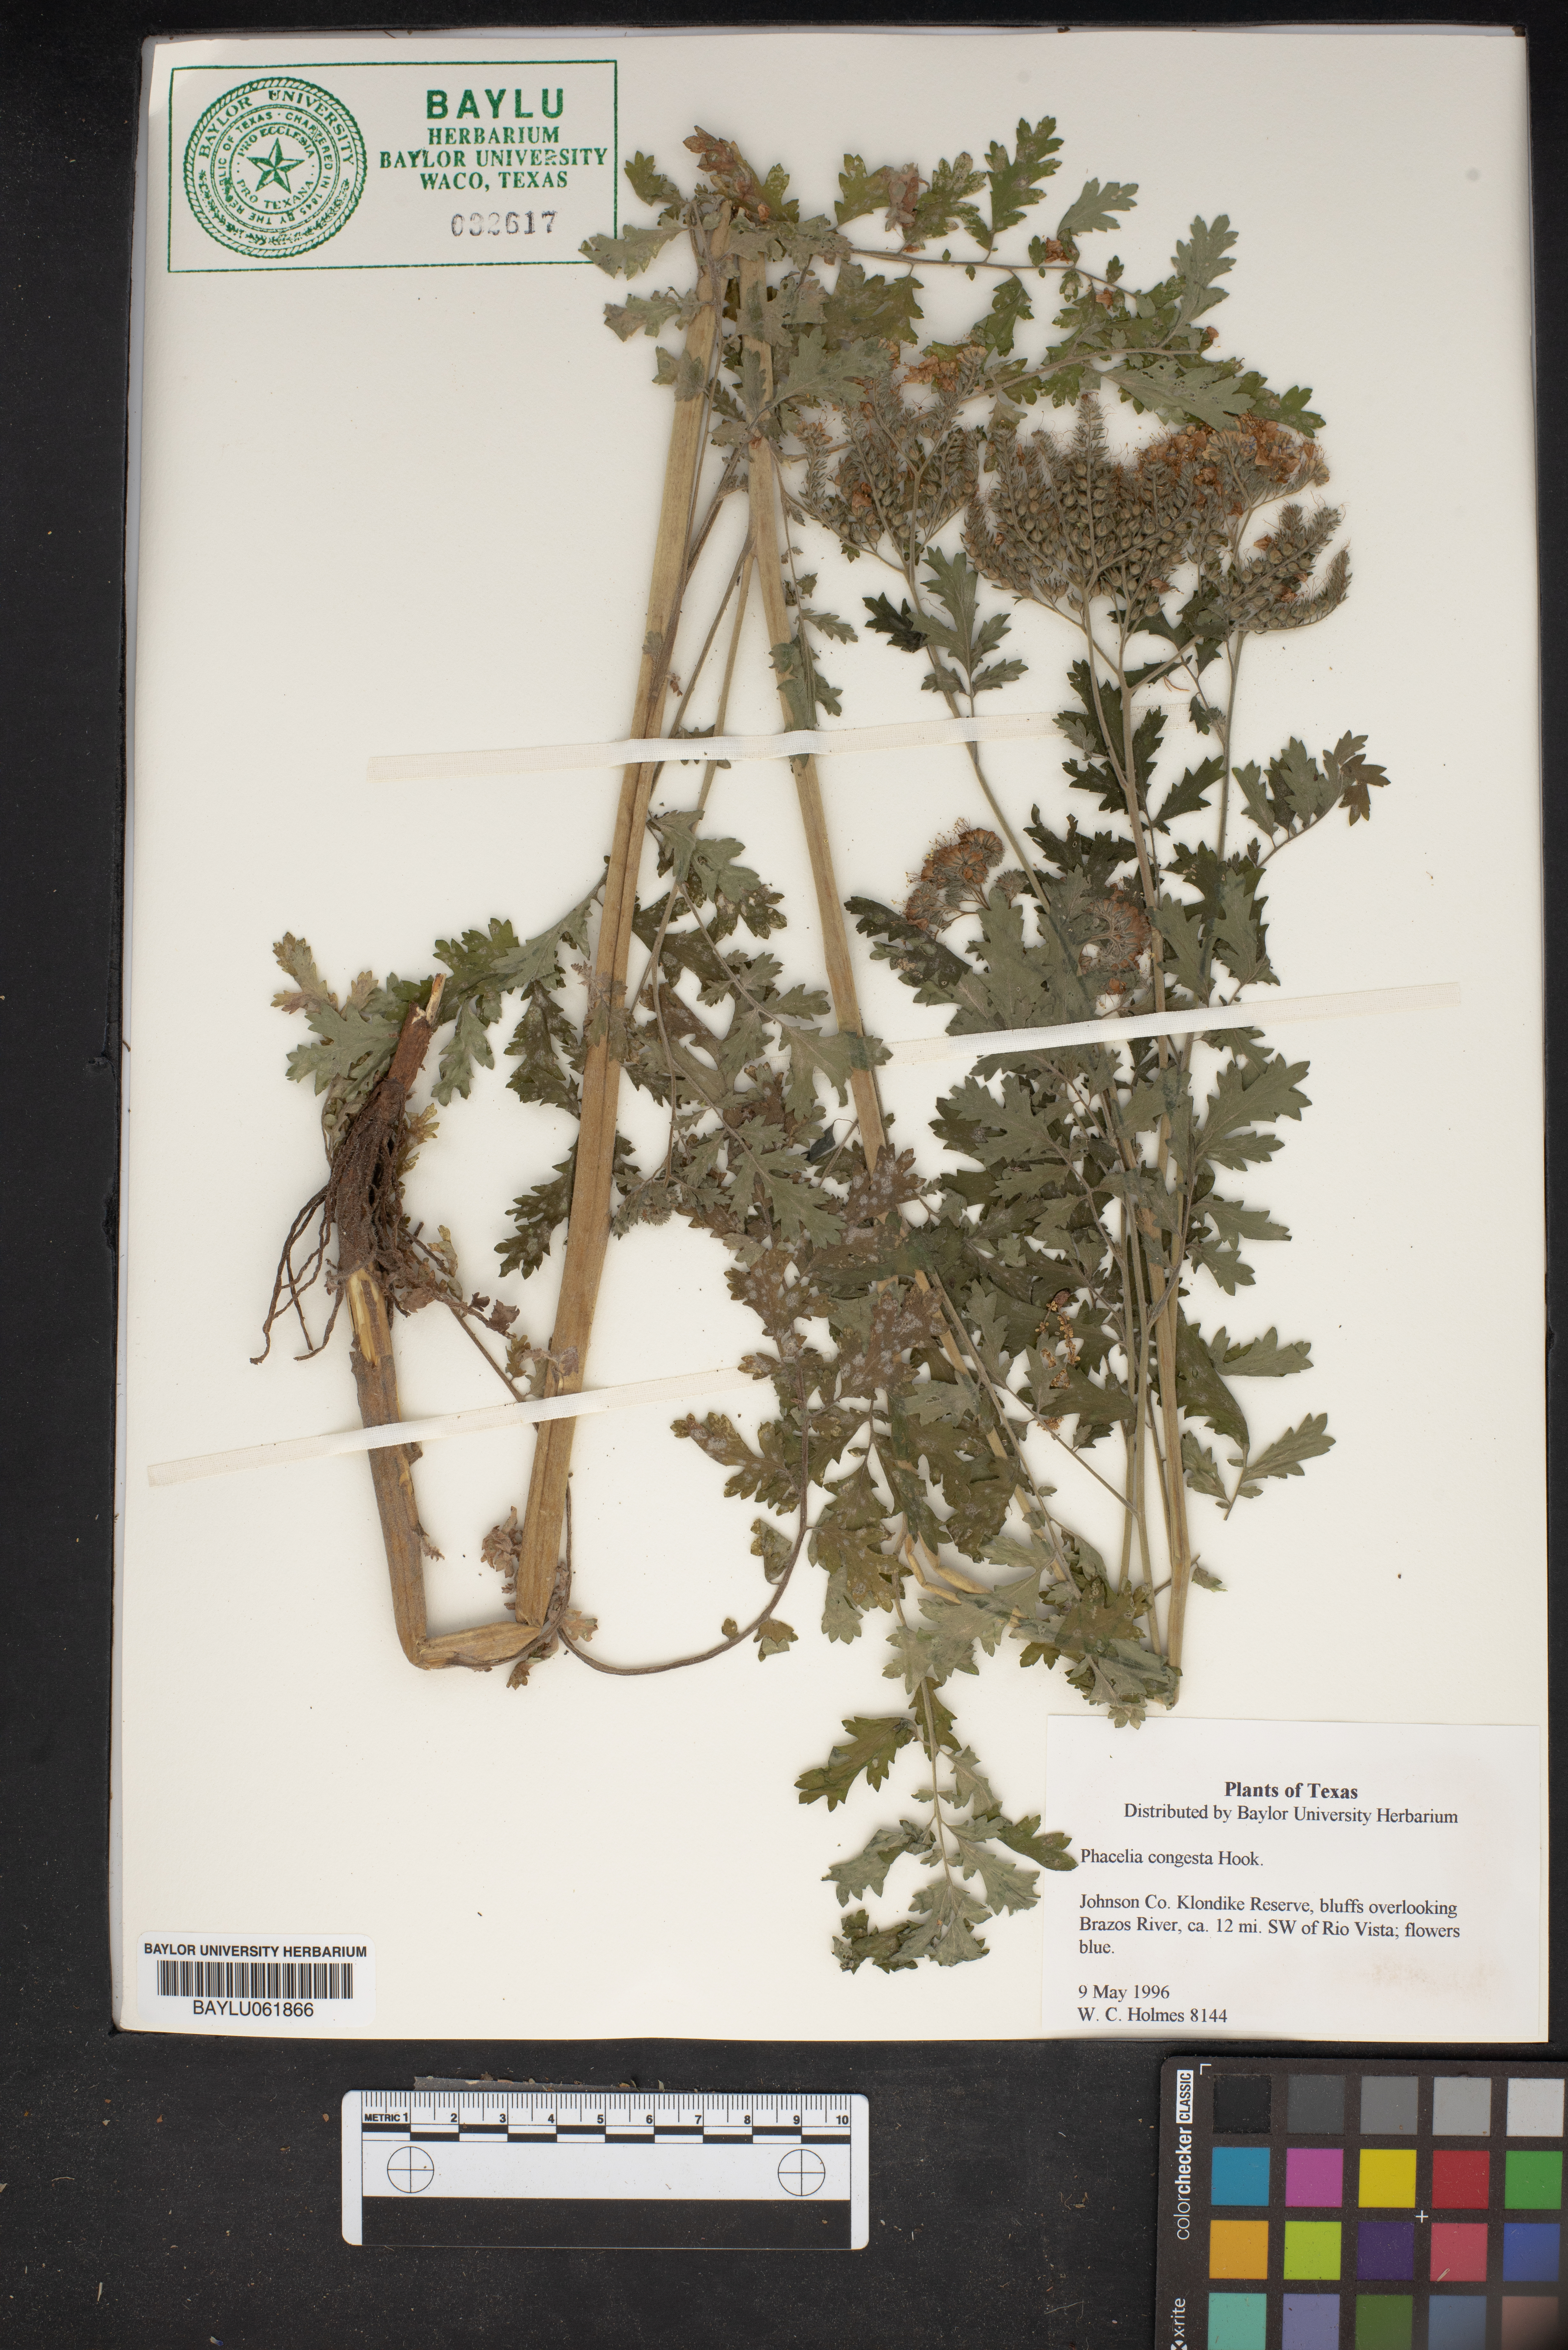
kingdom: Plantae
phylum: Tracheophyta
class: Magnoliopsida
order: Boraginales
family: Hydrophyllaceae
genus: Phacelia
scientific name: Phacelia congesta
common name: Blue curls
